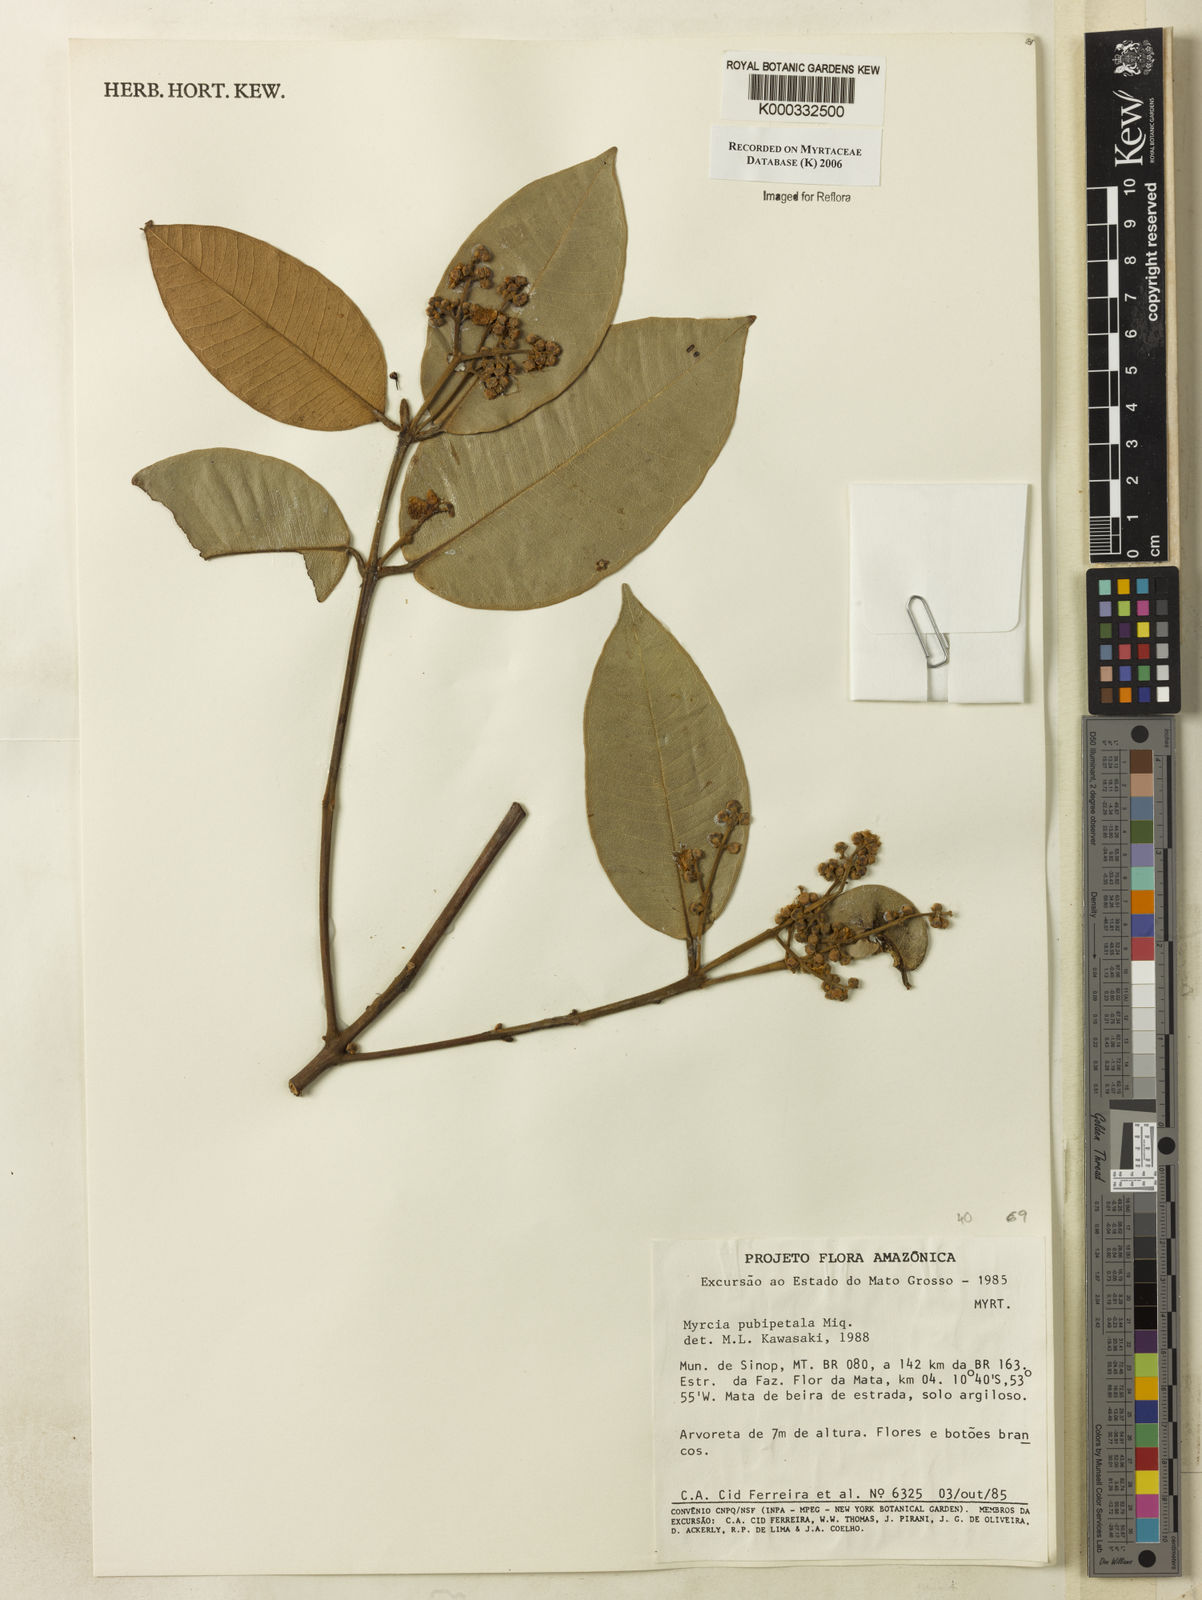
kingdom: Plantae
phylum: Tracheophyta
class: Magnoliopsida
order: Myrtales
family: Myrtaceae
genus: Myrcia
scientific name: Myrcia eximia
